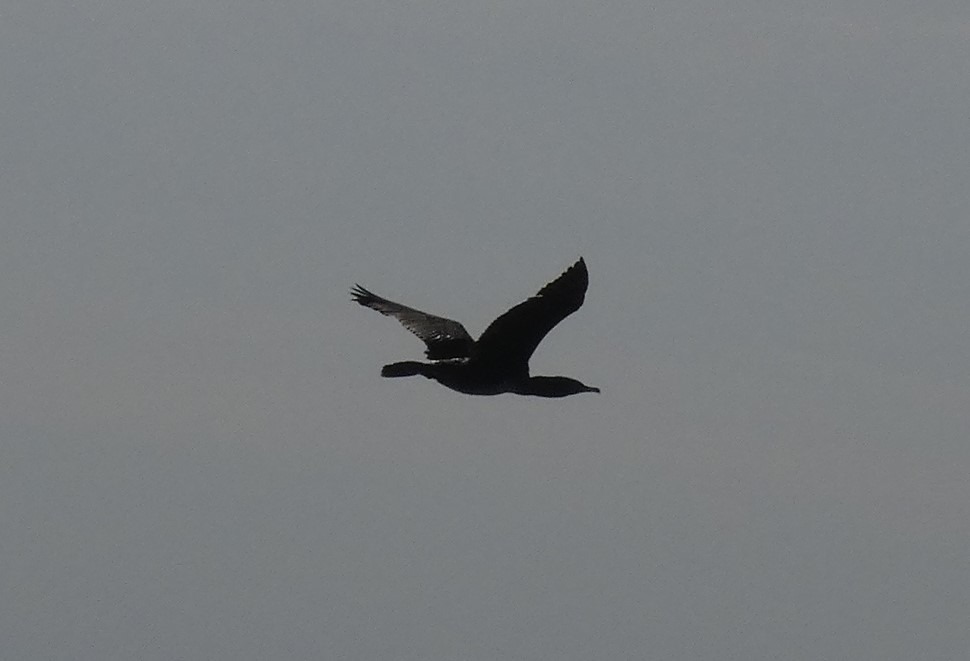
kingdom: Animalia
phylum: Chordata
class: Aves
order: Suliformes
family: Phalacrocoracidae
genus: Phalacrocorax
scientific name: Phalacrocorax carbo
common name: Skarv
